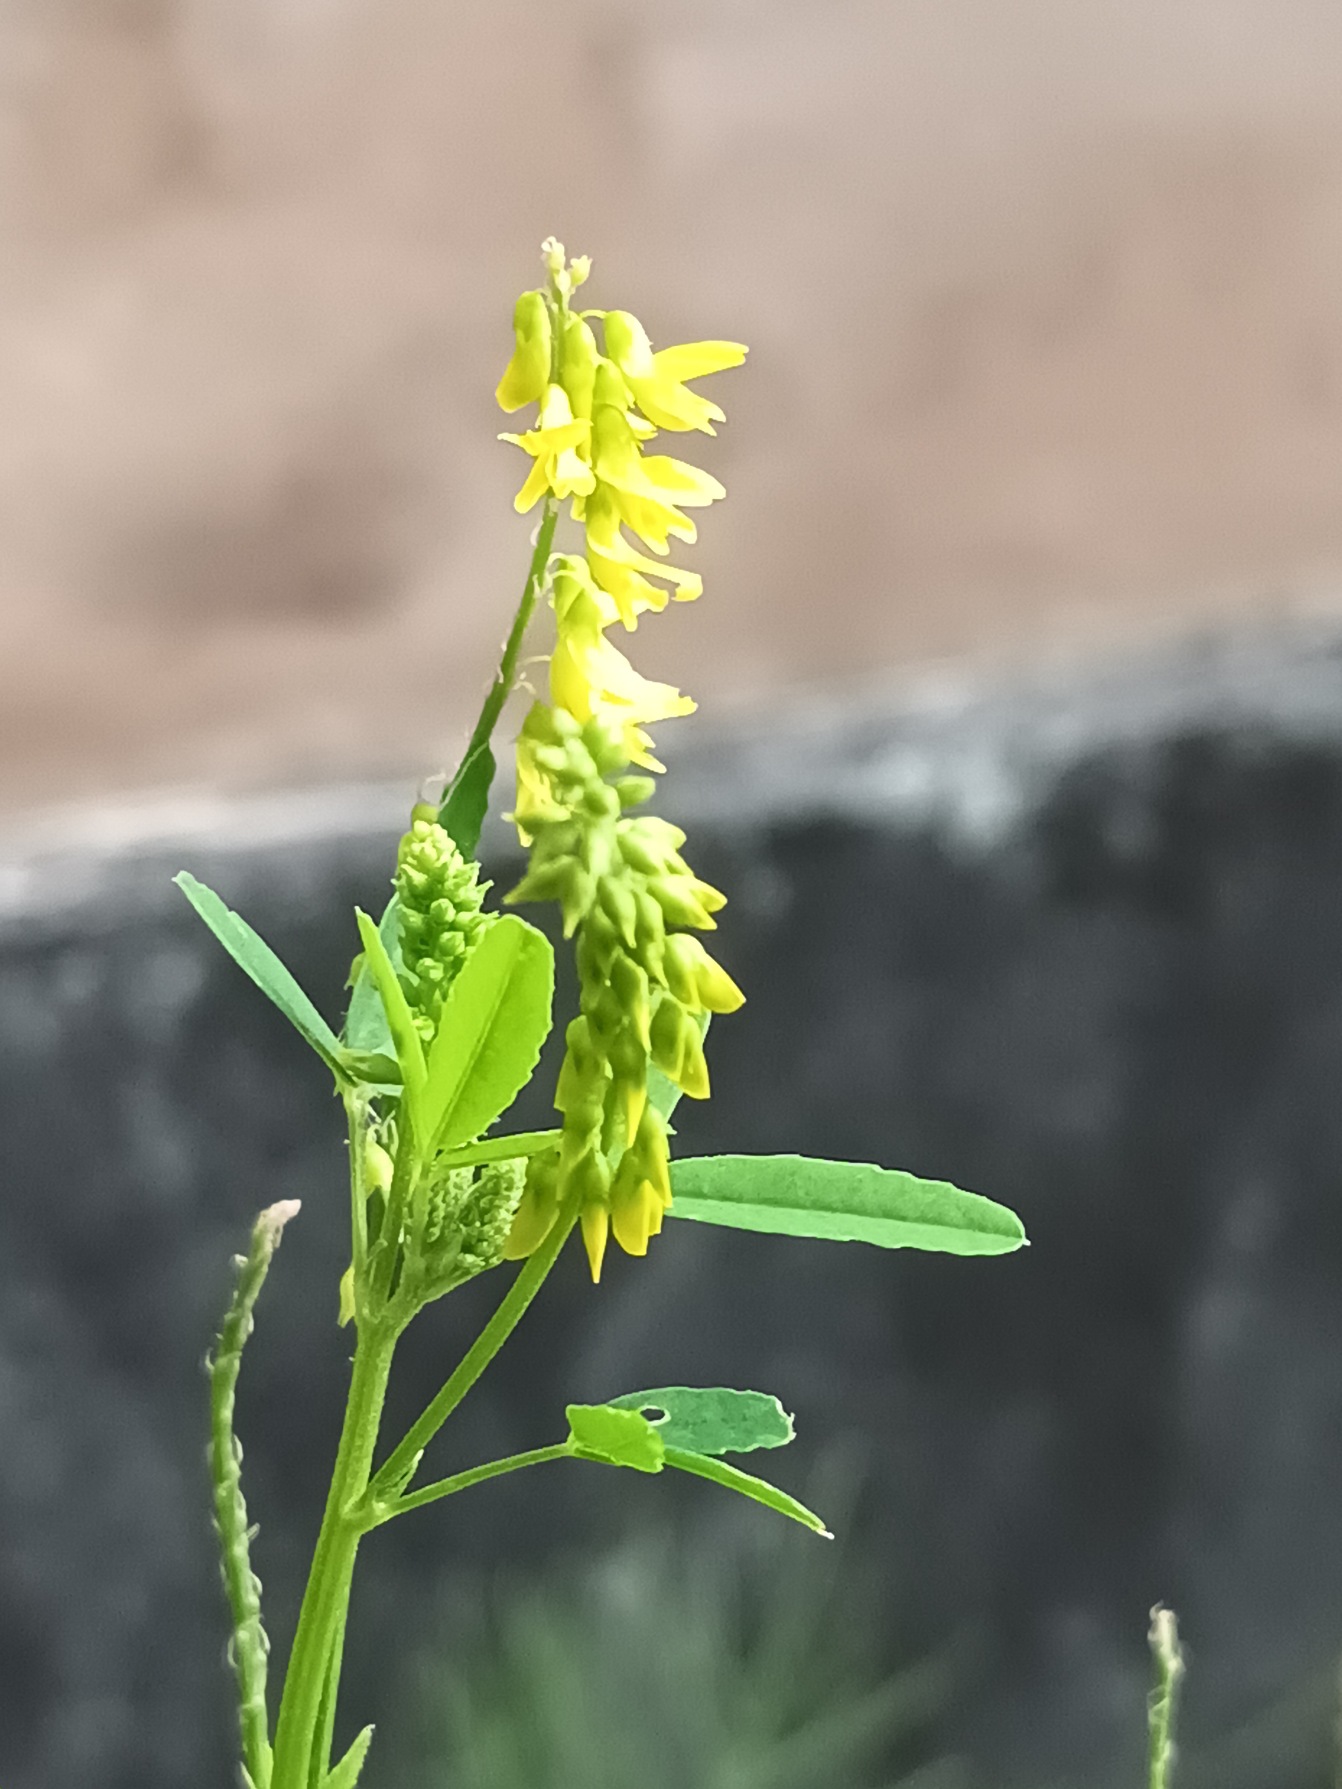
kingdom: Plantae
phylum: Tracheophyta
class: Magnoliopsida
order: Fabales
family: Fabaceae
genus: Melilotus
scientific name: Melilotus officinalis
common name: Mark-stenkløver
